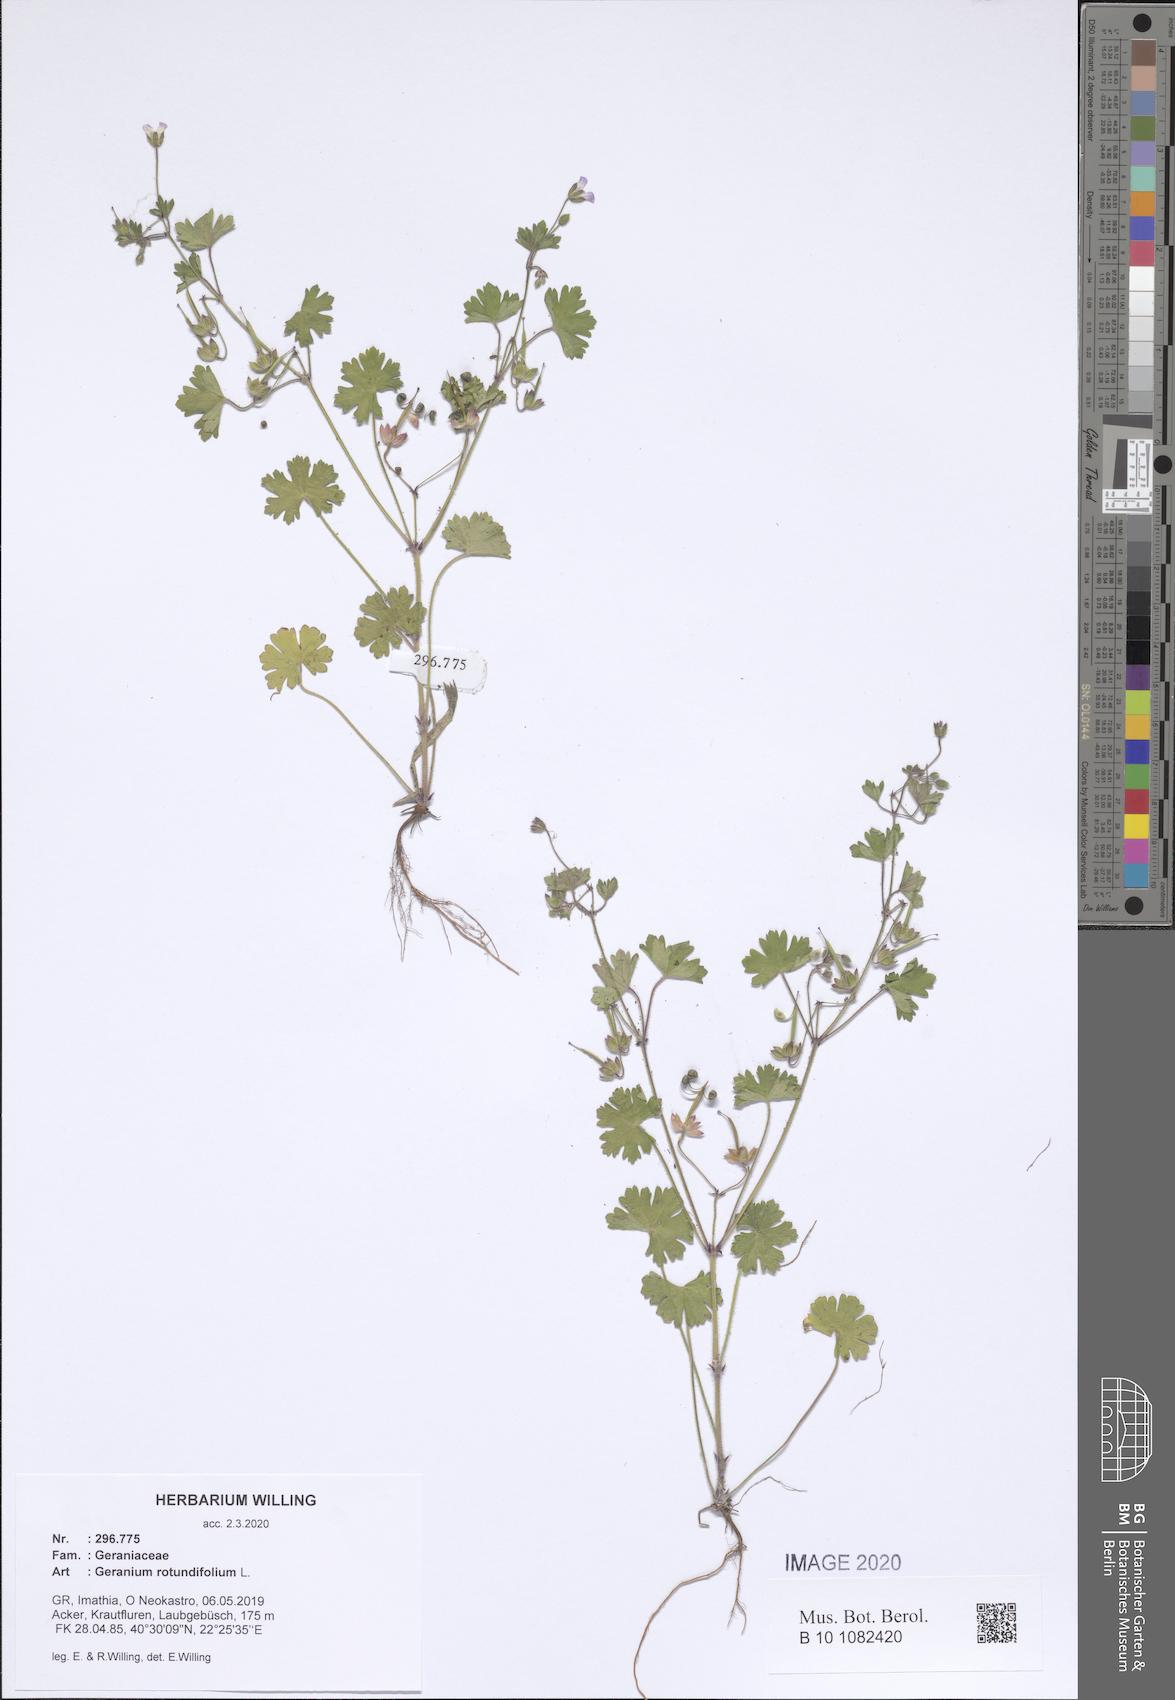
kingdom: Plantae
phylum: Tracheophyta
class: Magnoliopsida
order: Geraniales
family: Geraniaceae
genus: Geranium
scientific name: Geranium rotundifolium
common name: Round-leaved crane's-bill
